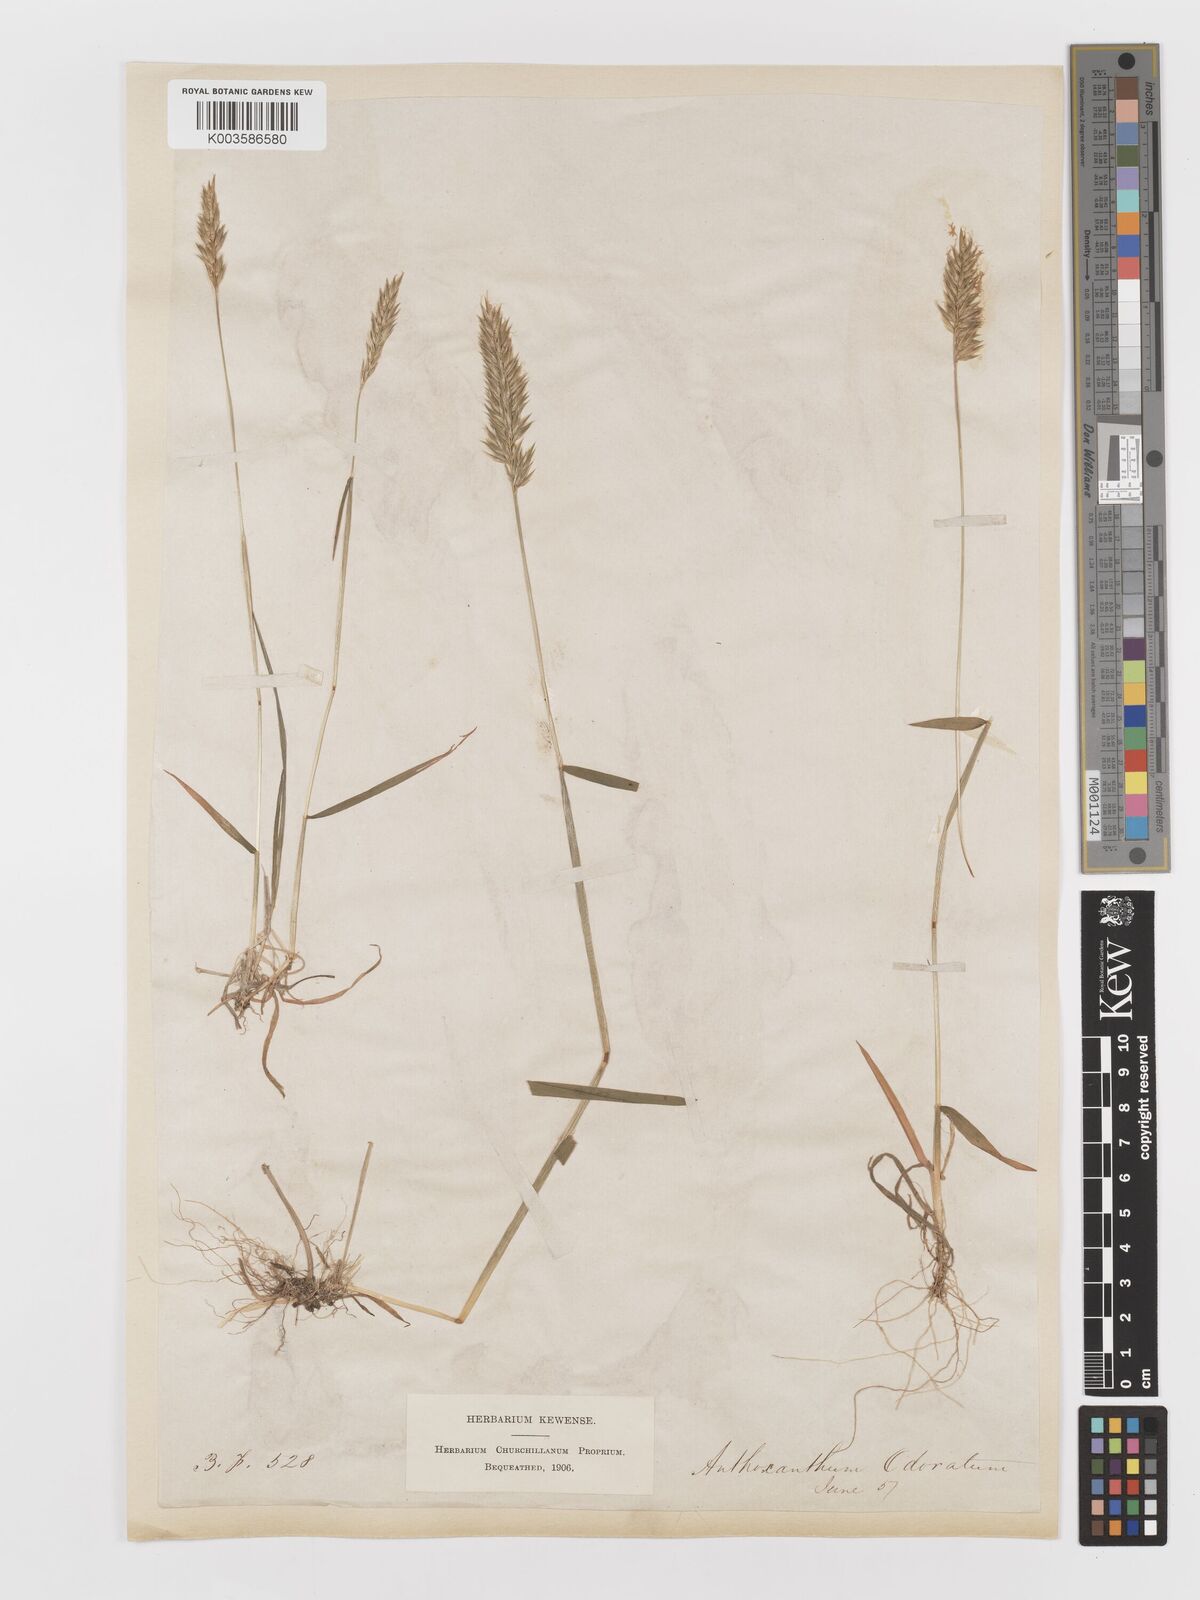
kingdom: Plantae
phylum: Tracheophyta
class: Liliopsida
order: Poales
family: Poaceae
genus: Anthoxanthum
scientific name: Anthoxanthum odoratum
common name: Sweet vernalgrass
